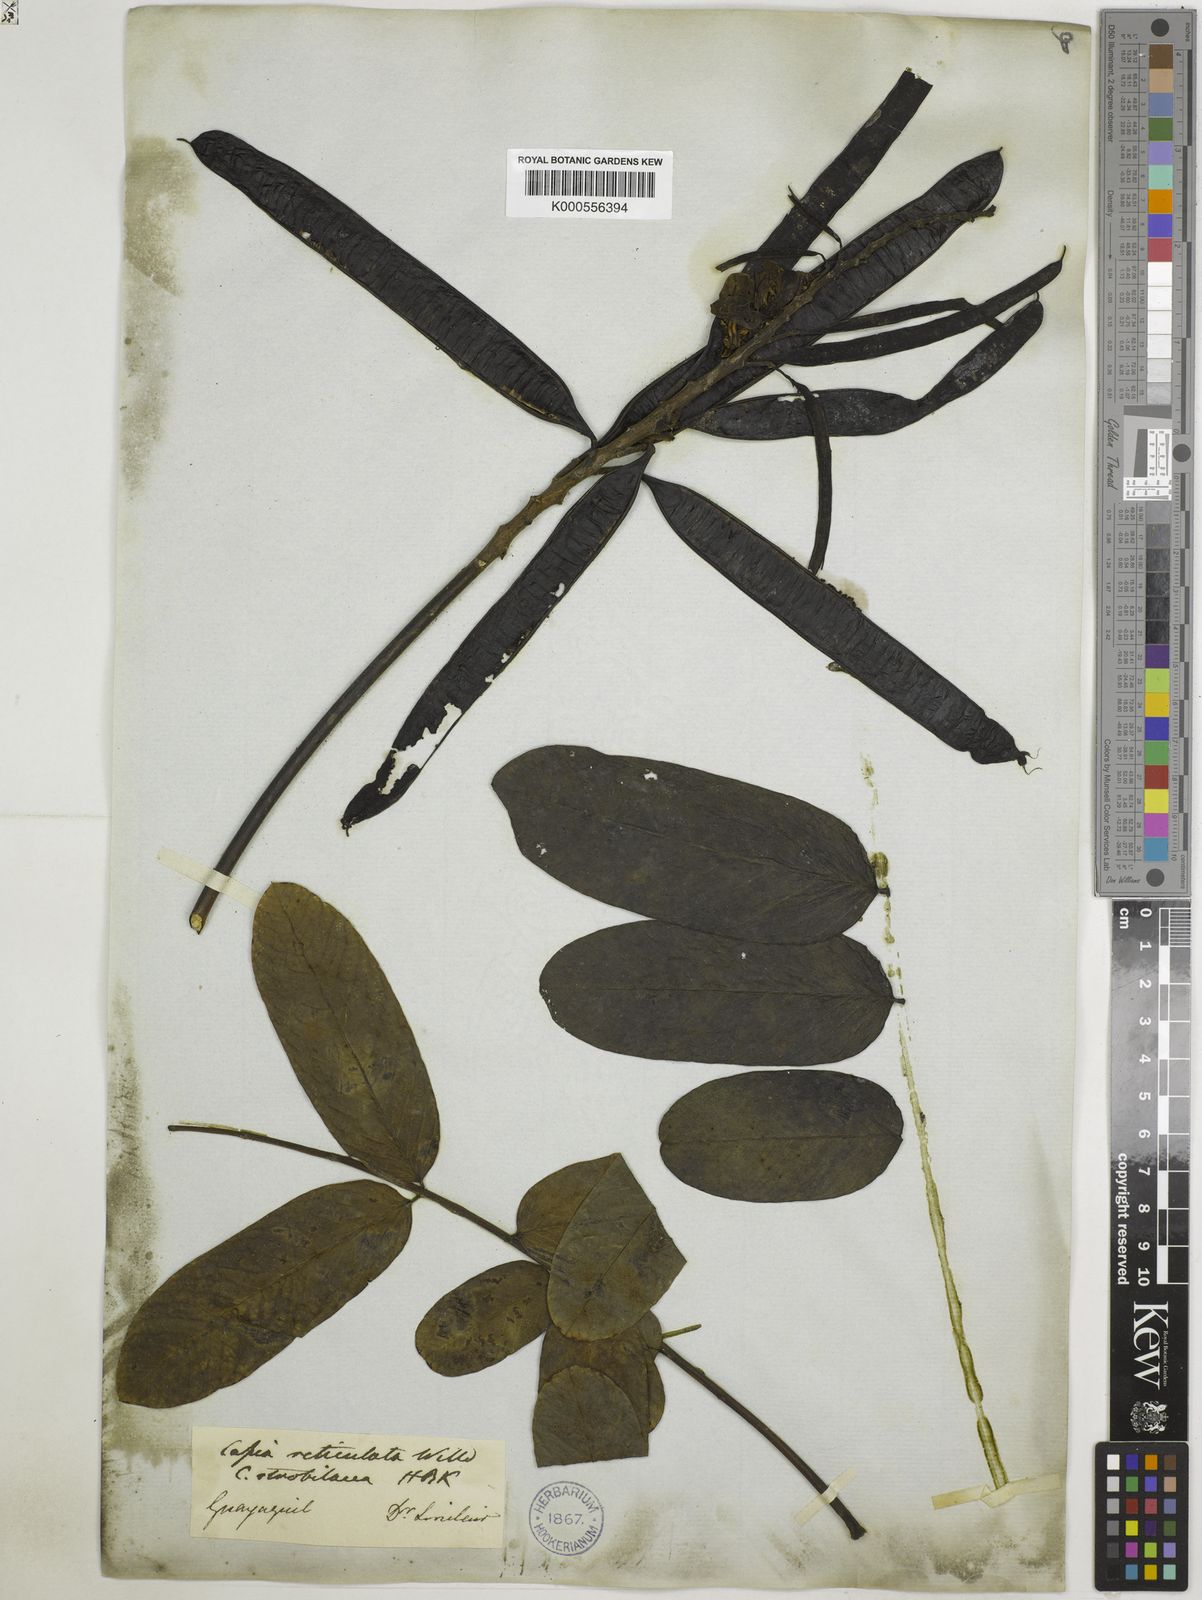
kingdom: Plantae
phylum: Tracheophyta
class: Magnoliopsida
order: Fabales
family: Fabaceae
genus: Senna
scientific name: Senna reticulata
